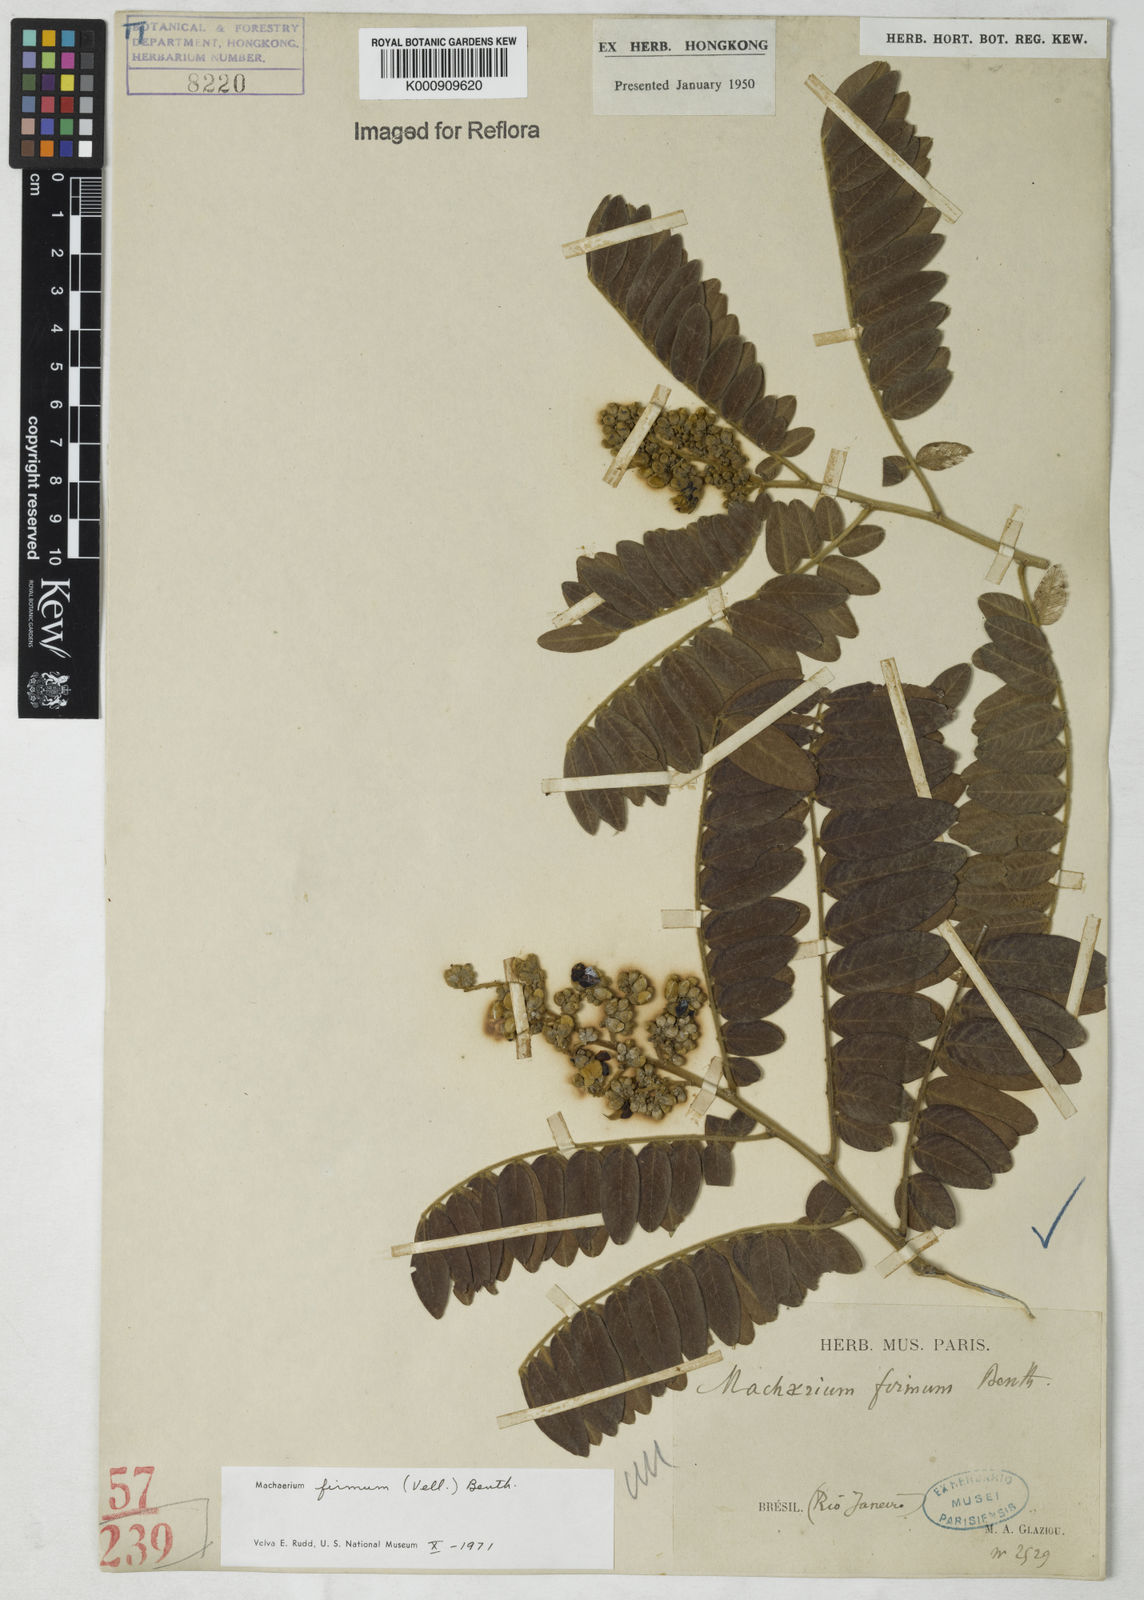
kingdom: Plantae
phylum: Tracheophyta
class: Magnoliopsida
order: Fabales
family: Fabaceae
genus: Machaerium
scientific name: Machaerium firmum
